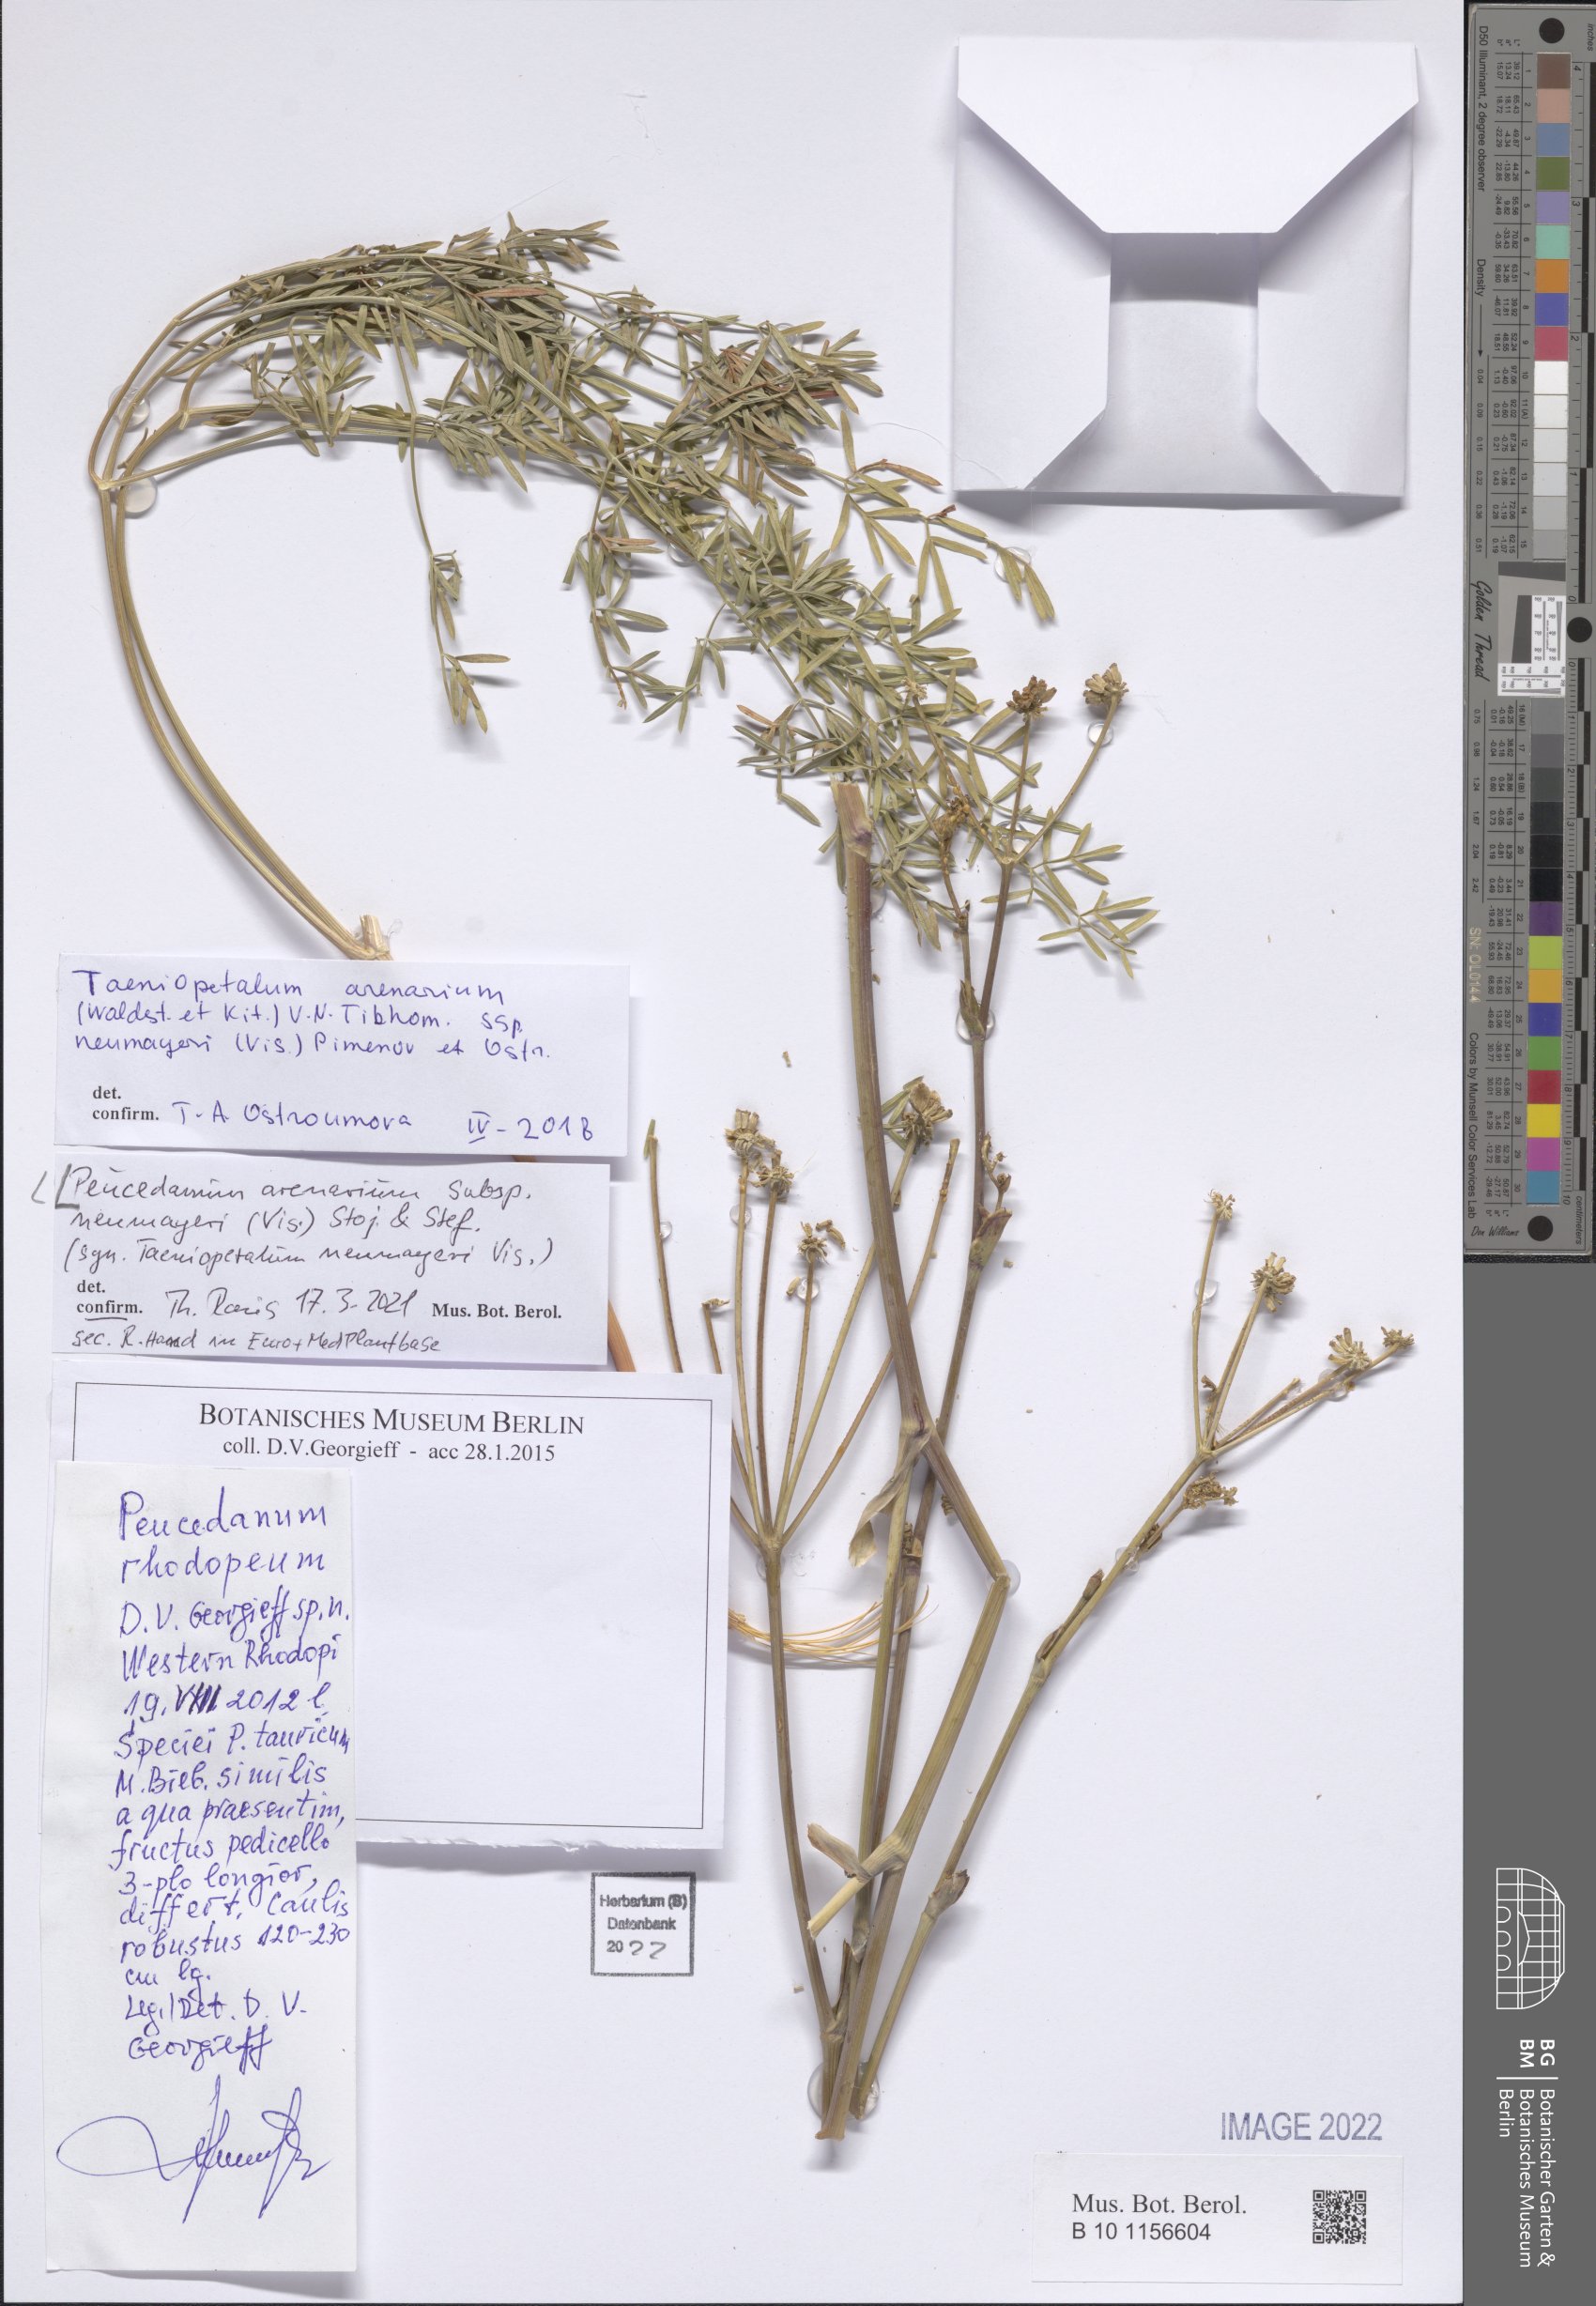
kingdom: Plantae
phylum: Tracheophyta
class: Magnoliopsida
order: Apiales
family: Apiaceae
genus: Taeniopetalum
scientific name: Taeniopetalum arenarium
